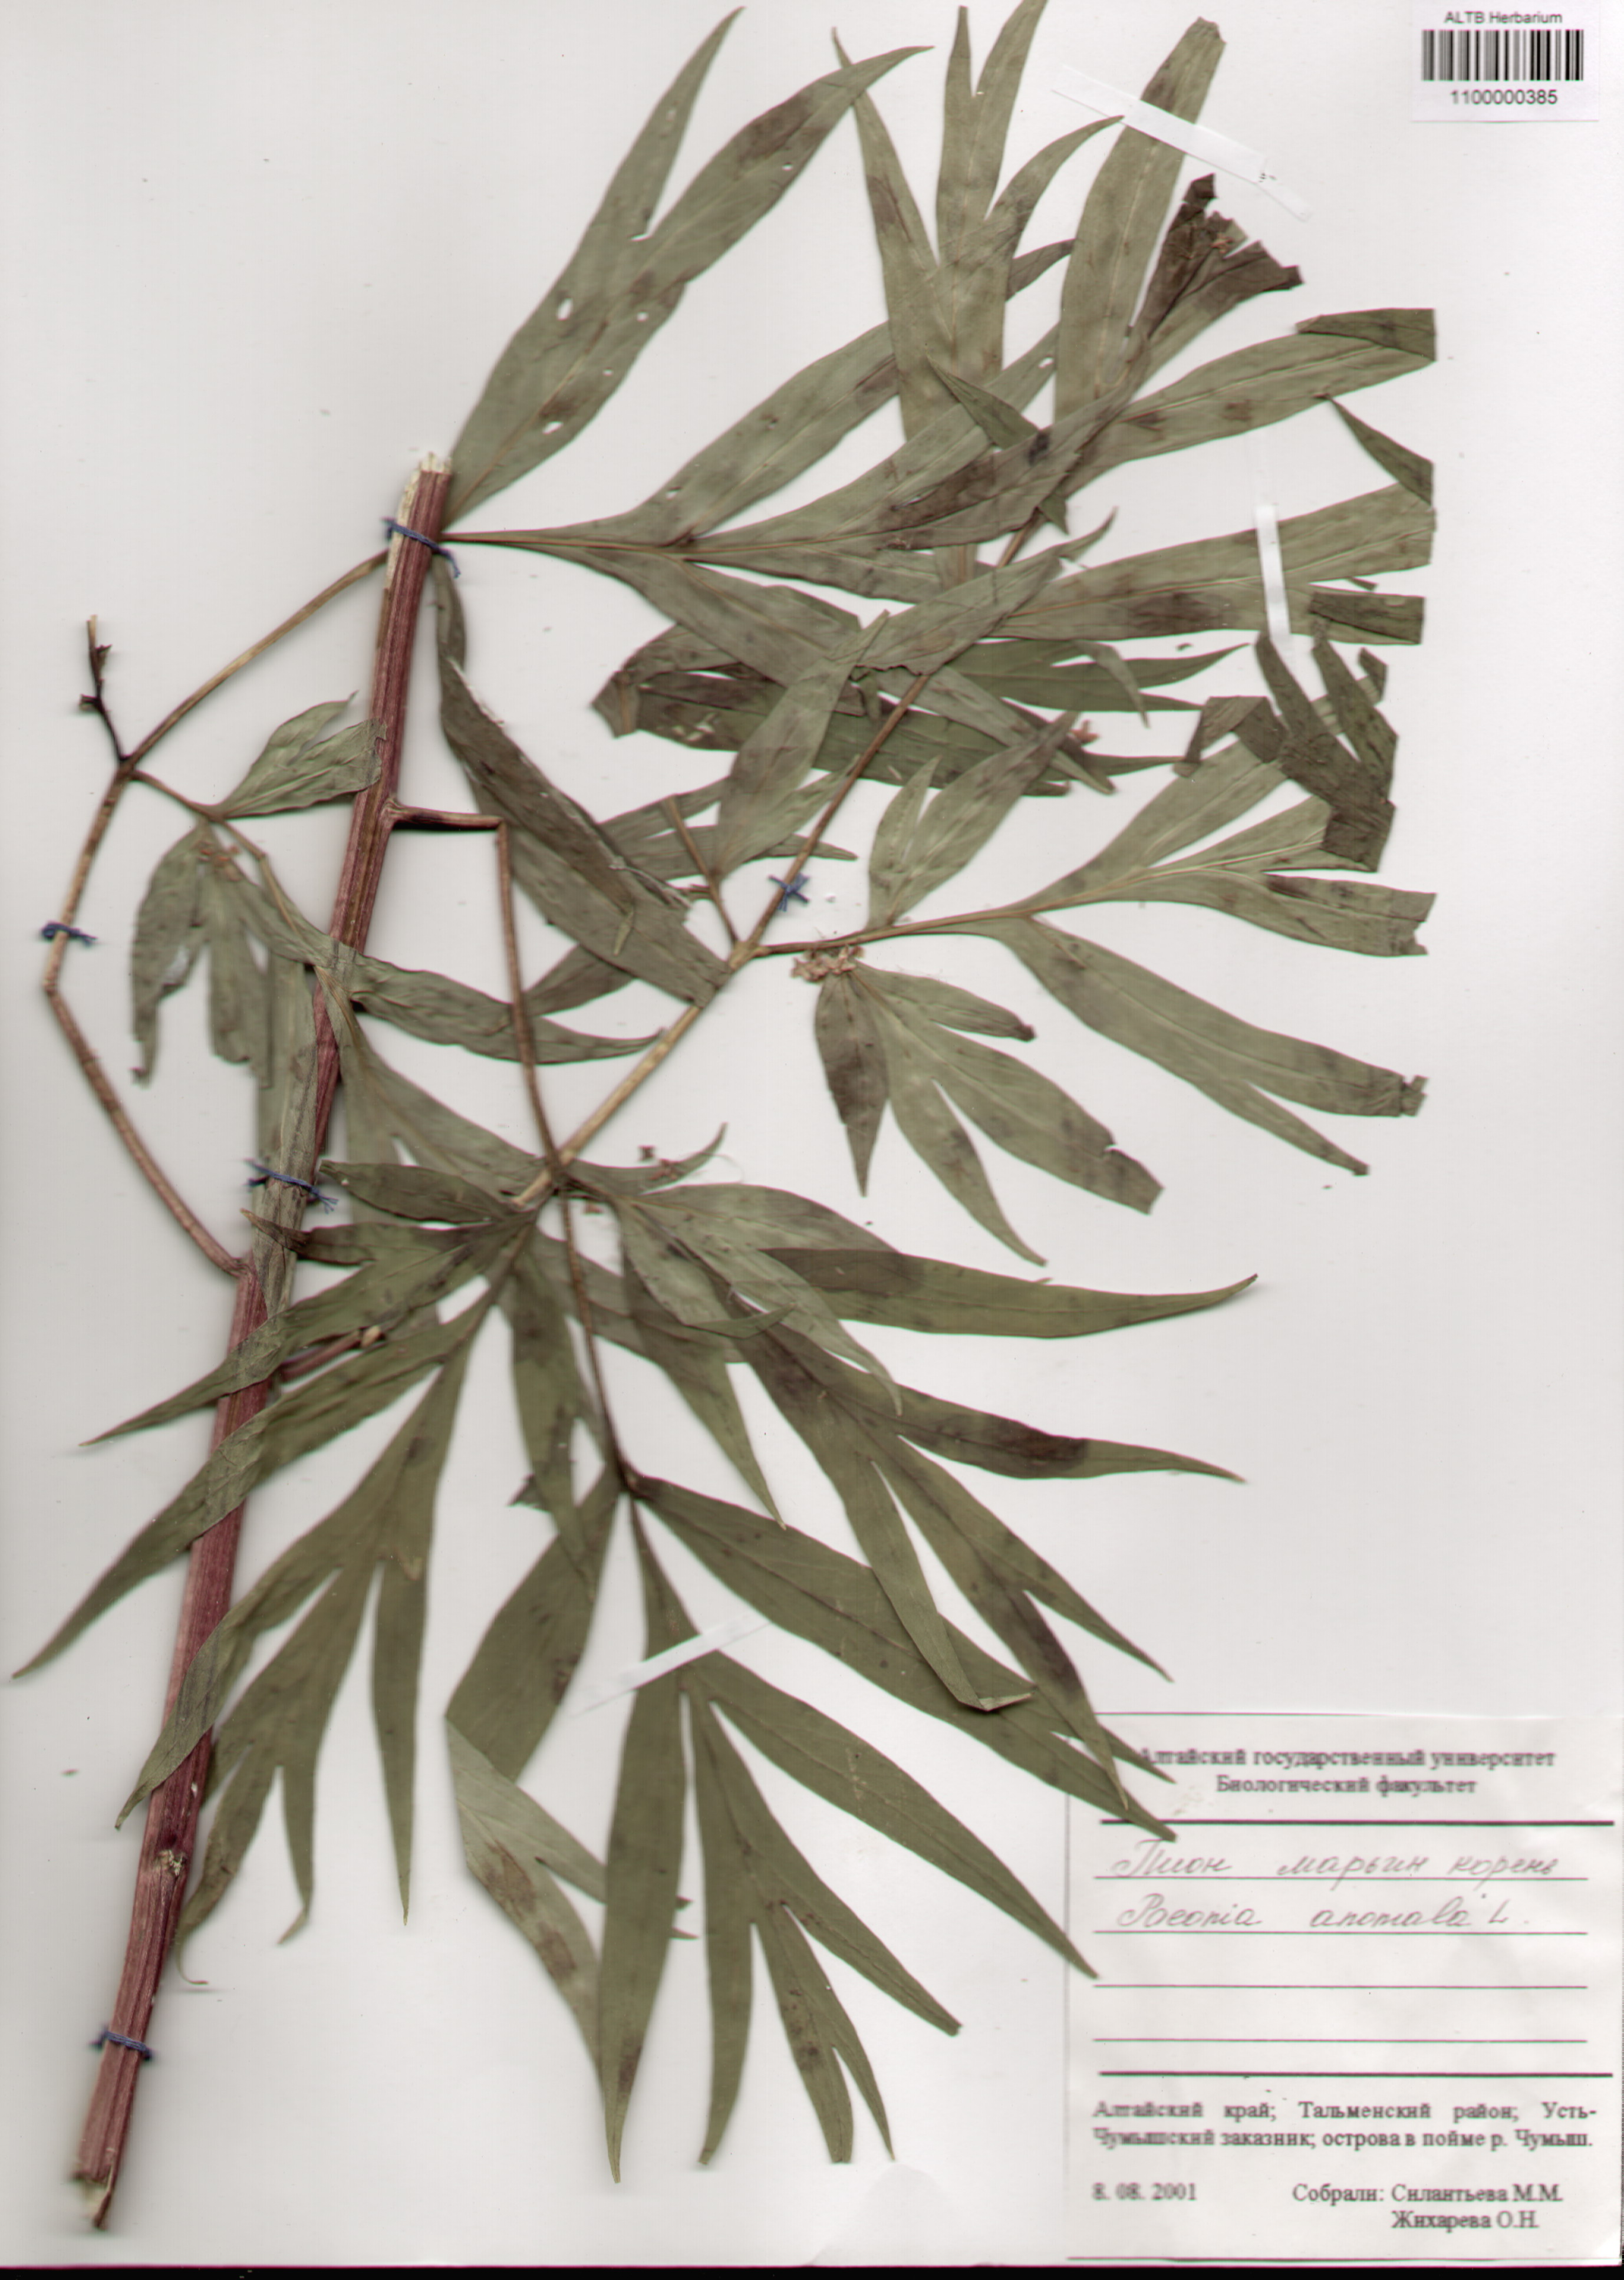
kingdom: Plantae
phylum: Tracheophyta
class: Magnoliopsida
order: Saxifragales
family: Paeoniaceae
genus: Paeonia
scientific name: Paeonia anomala
